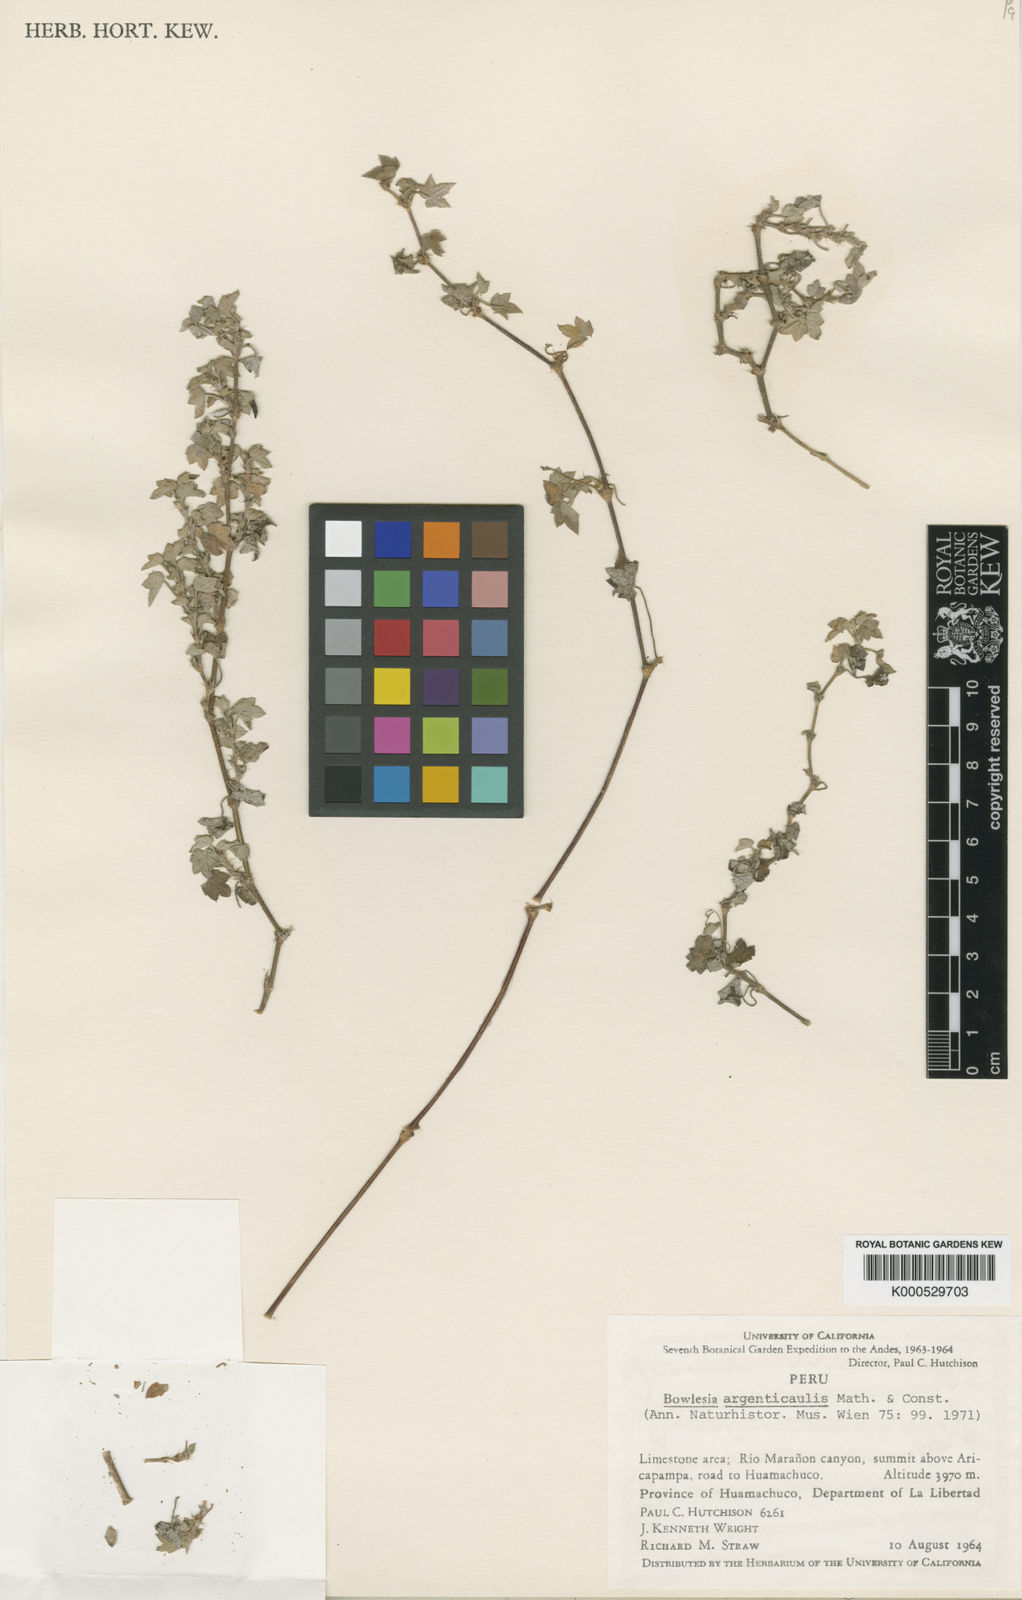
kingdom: Plantae
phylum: Tracheophyta
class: Magnoliopsida
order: Apiales
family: Apiaceae
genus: Bowlesia
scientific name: Bowlesia argenticaulis
